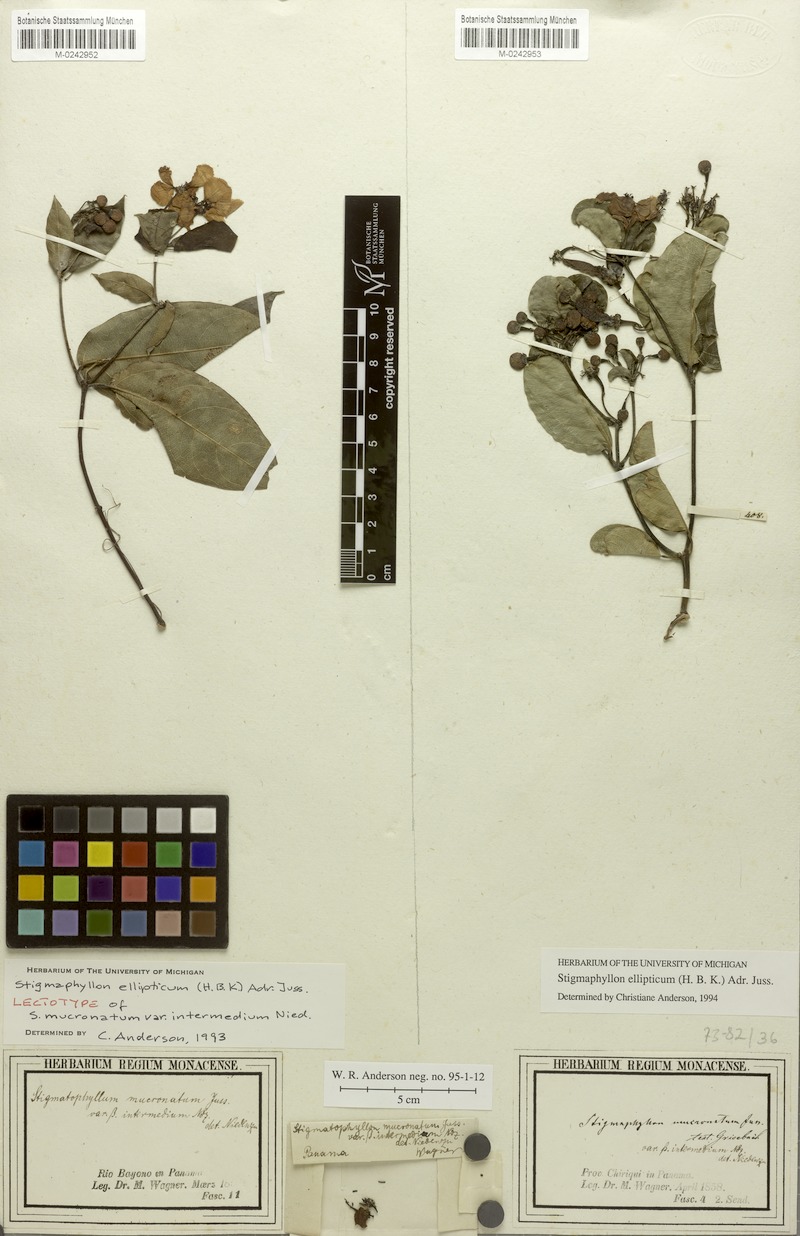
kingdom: Plantae
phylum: Tracheophyta
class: Magnoliopsida
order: Malpighiales
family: Malpighiaceae
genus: Stigmaphyllon
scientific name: Stigmaphyllon ellipticum
